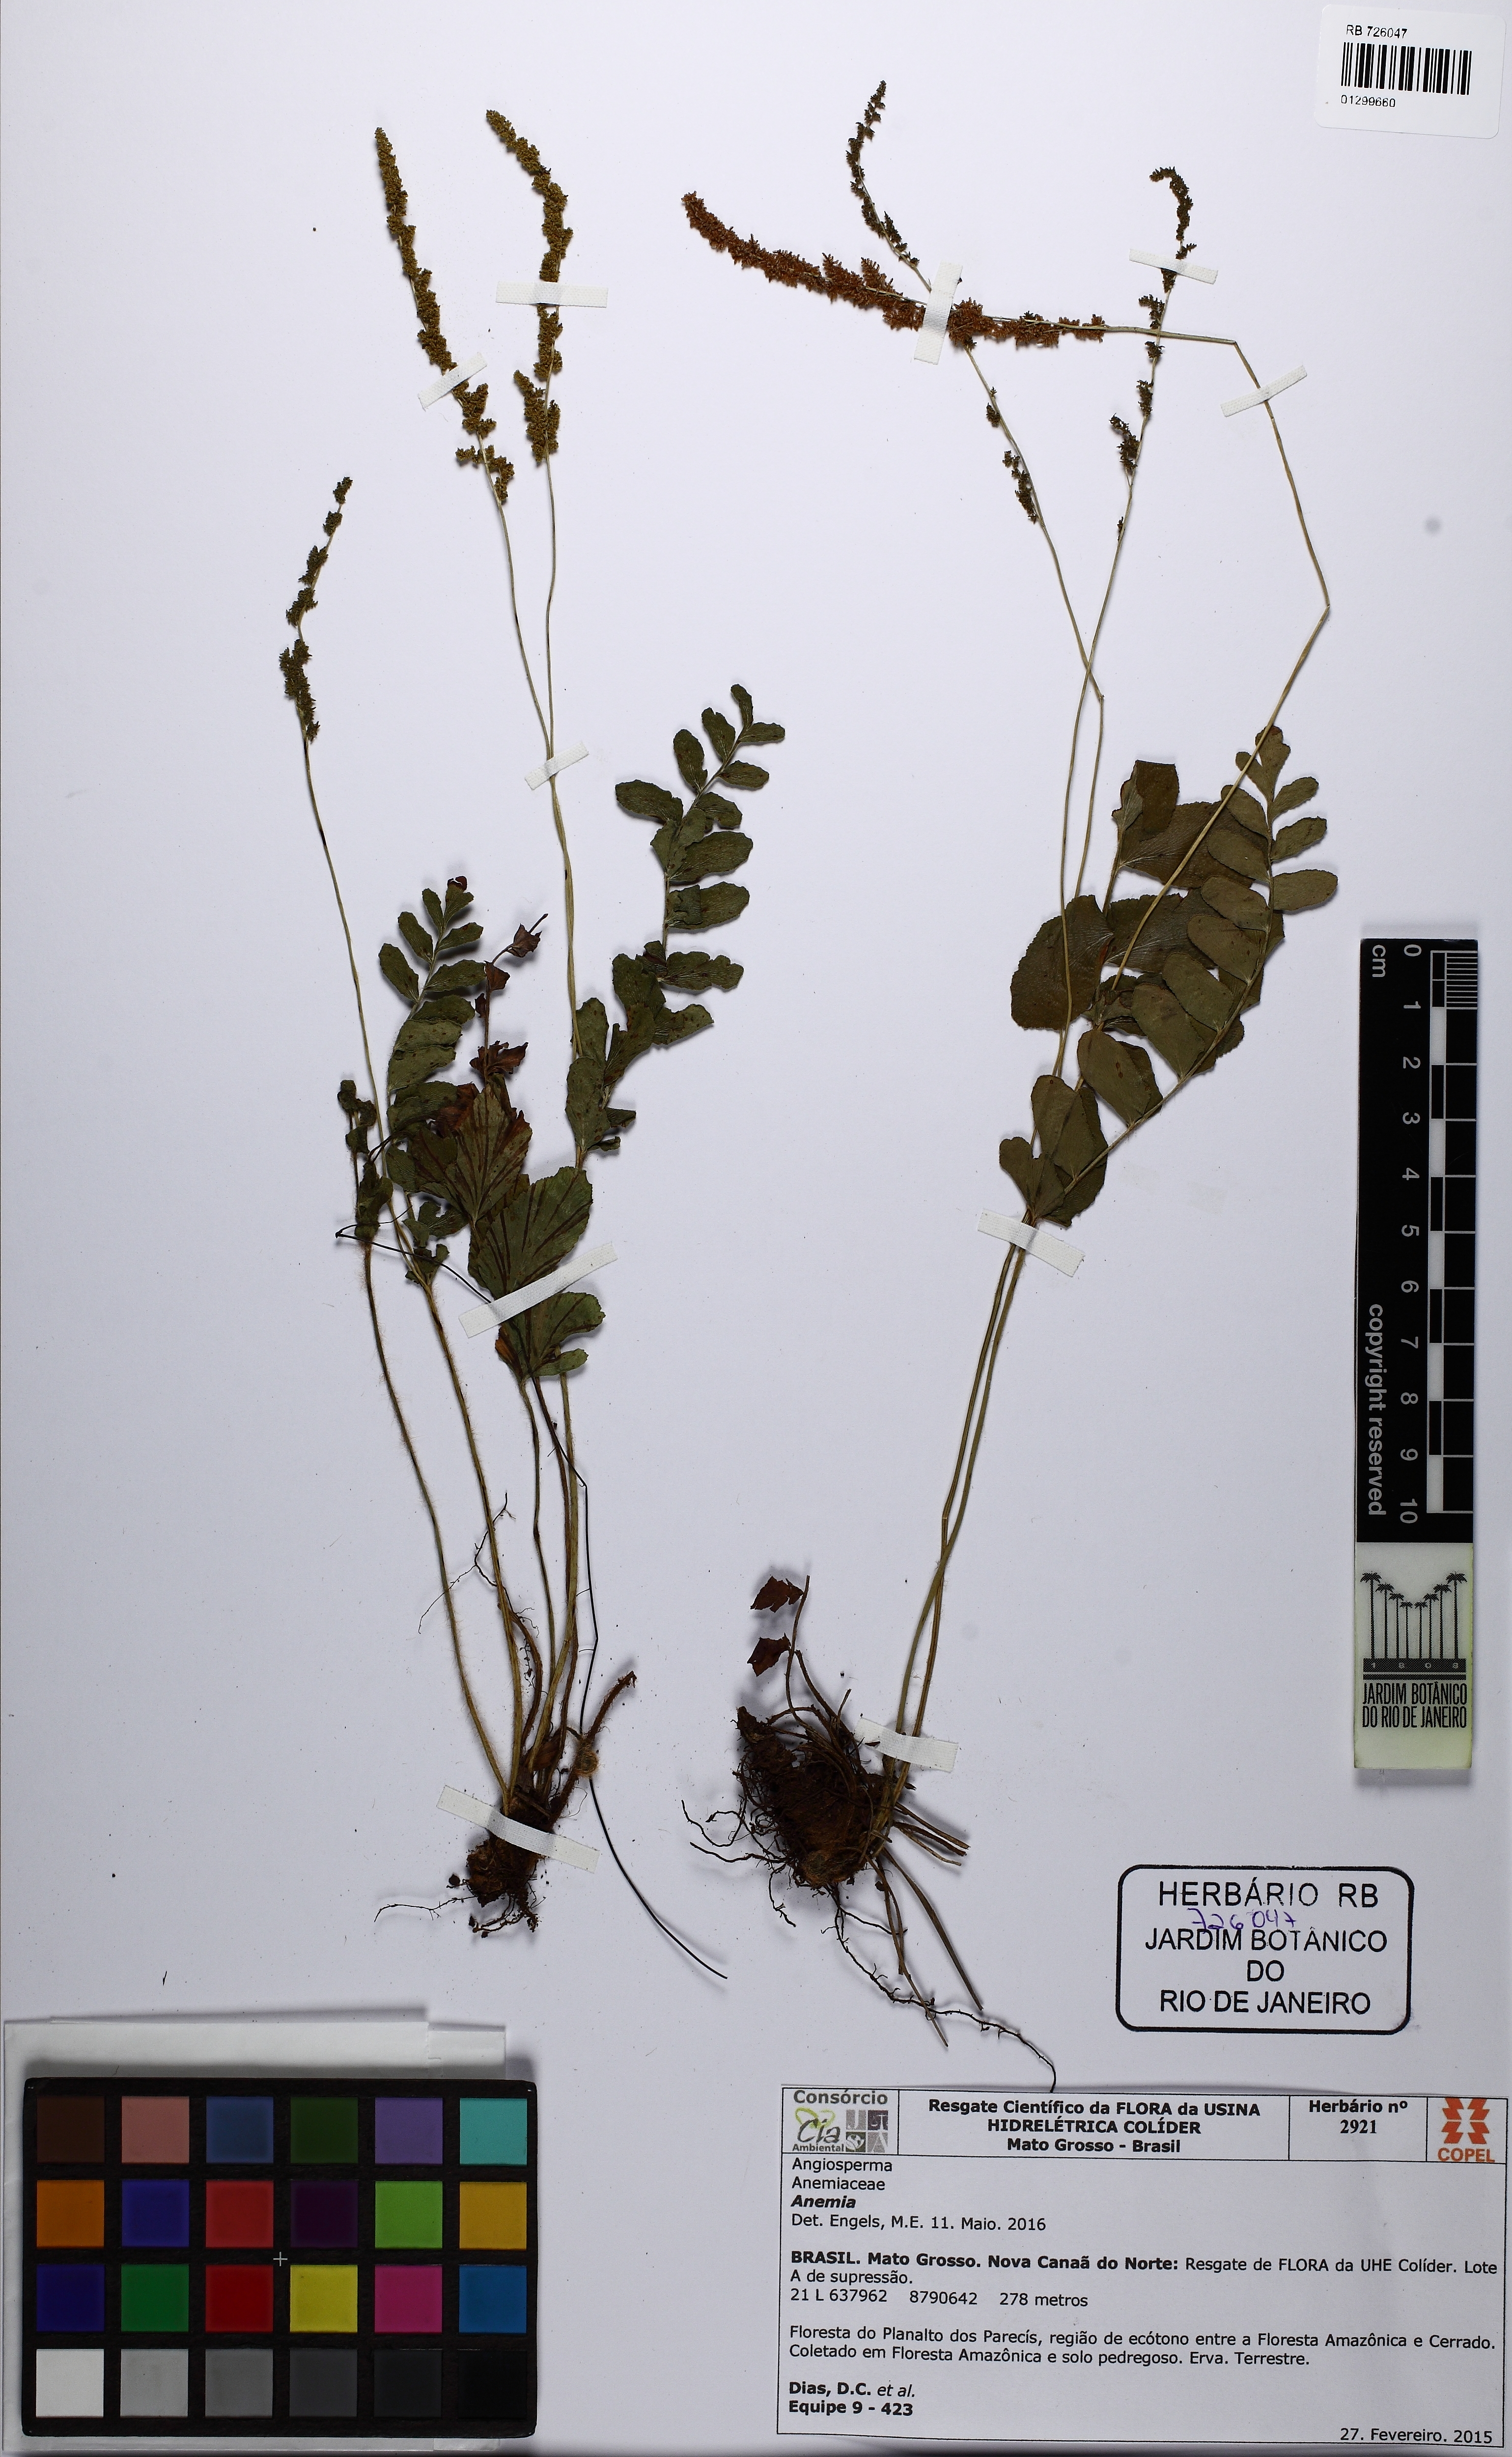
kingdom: Plantae
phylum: Tracheophyta
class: Polypodiopsida
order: Schizaeales
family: Anemiaceae
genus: Anemia
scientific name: Anemia organensis
